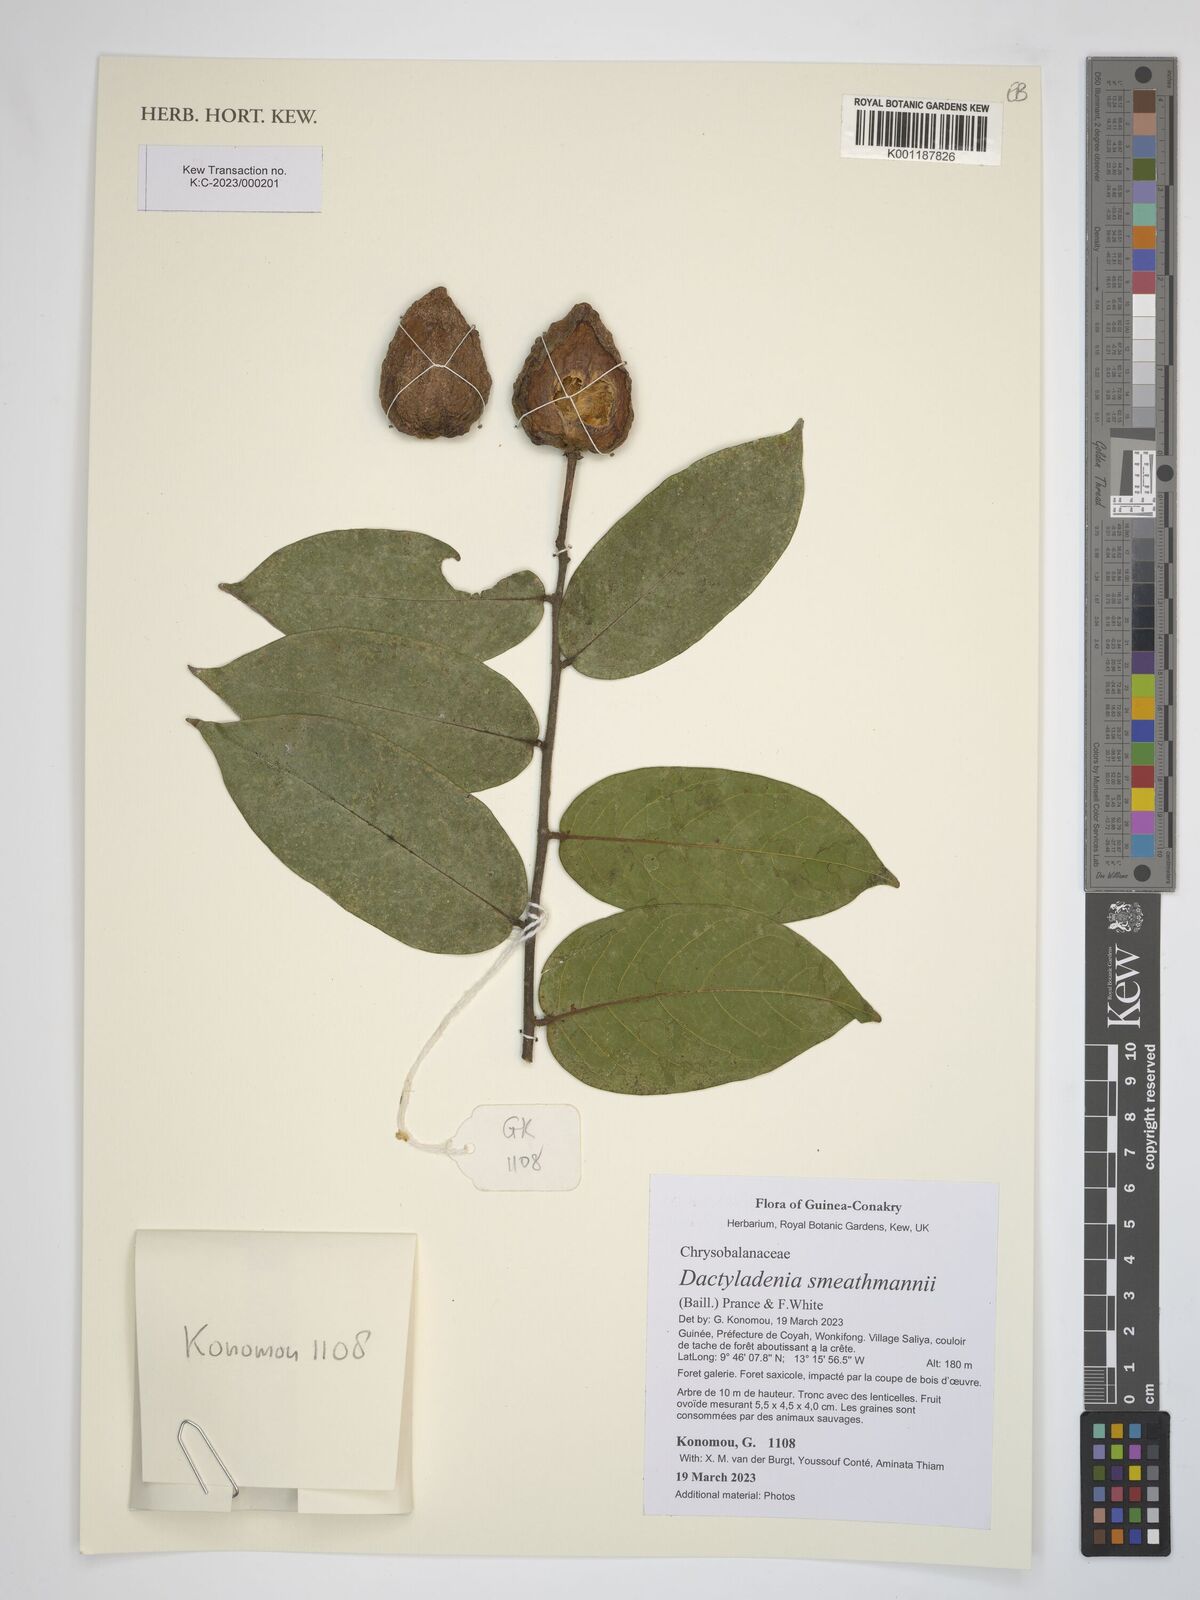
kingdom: Plantae
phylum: Tracheophyta
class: Magnoliopsida
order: Malpighiales
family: Chrysobalanaceae
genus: Dactyladenia
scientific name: Dactyladenia smeathmannii
